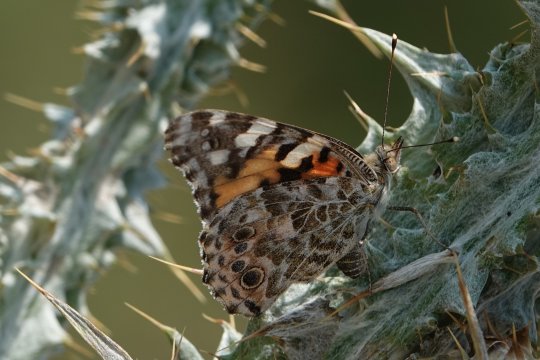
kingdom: Animalia
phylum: Arthropoda
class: Insecta
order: Lepidoptera
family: Nymphalidae
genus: Vanessa
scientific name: Vanessa cardui
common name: Painted Lady
